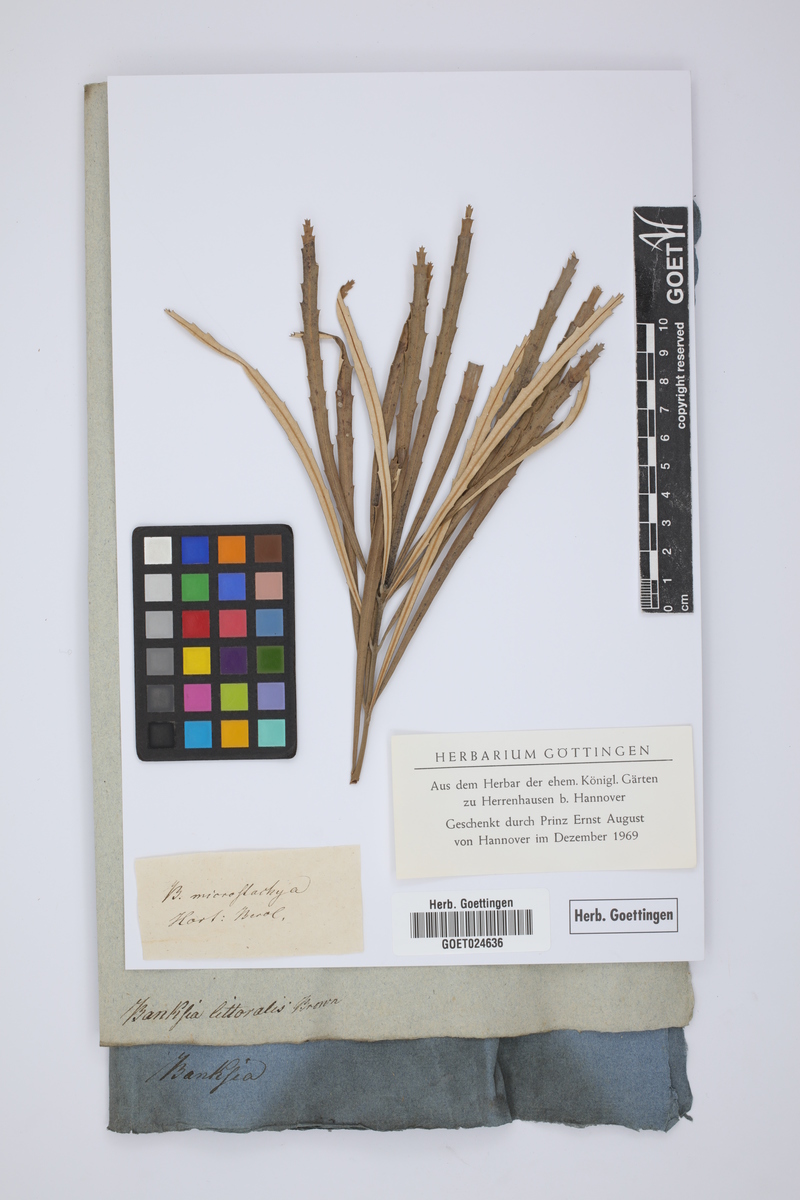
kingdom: Plantae
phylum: Tracheophyta
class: Magnoliopsida
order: Proteales
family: Proteaceae
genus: Banksia
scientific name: Banksia littoralis
